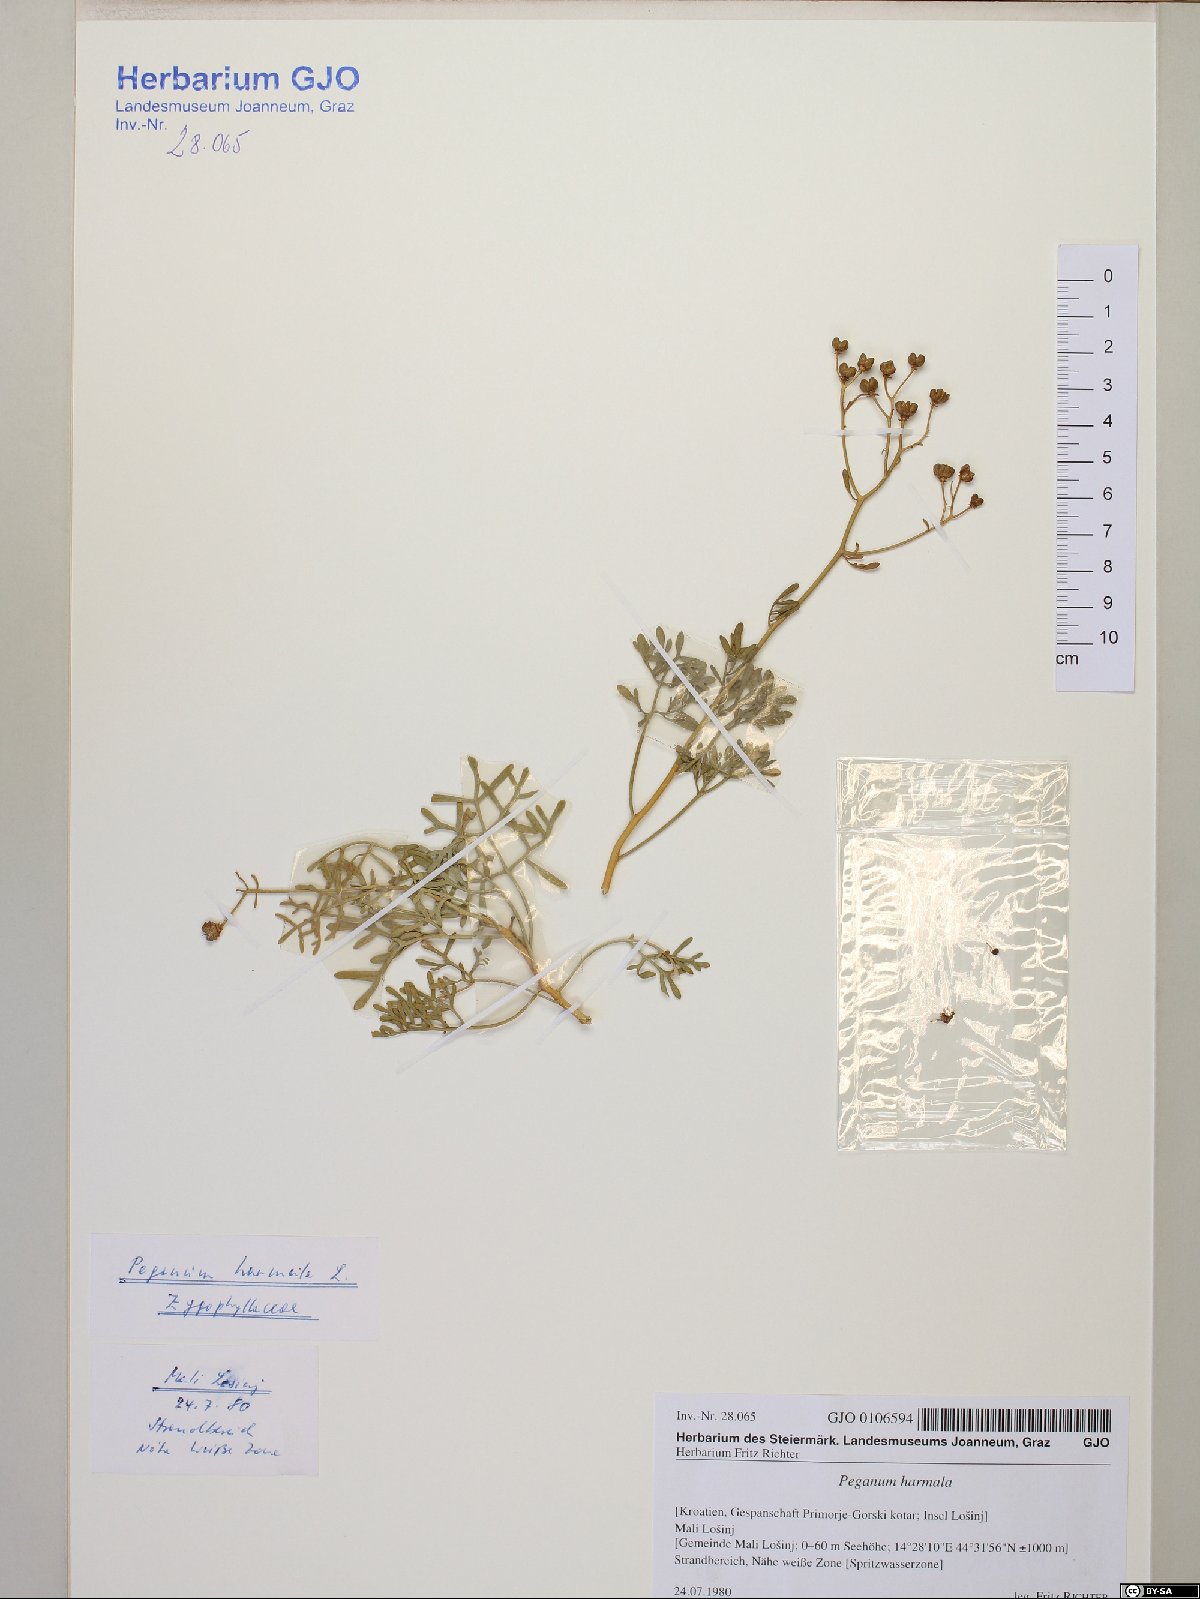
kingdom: Plantae
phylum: Tracheophyta
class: Magnoliopsida
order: Sapindales
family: Rutaceae
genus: Ruta
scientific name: Ruta graveolens
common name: Common rue
